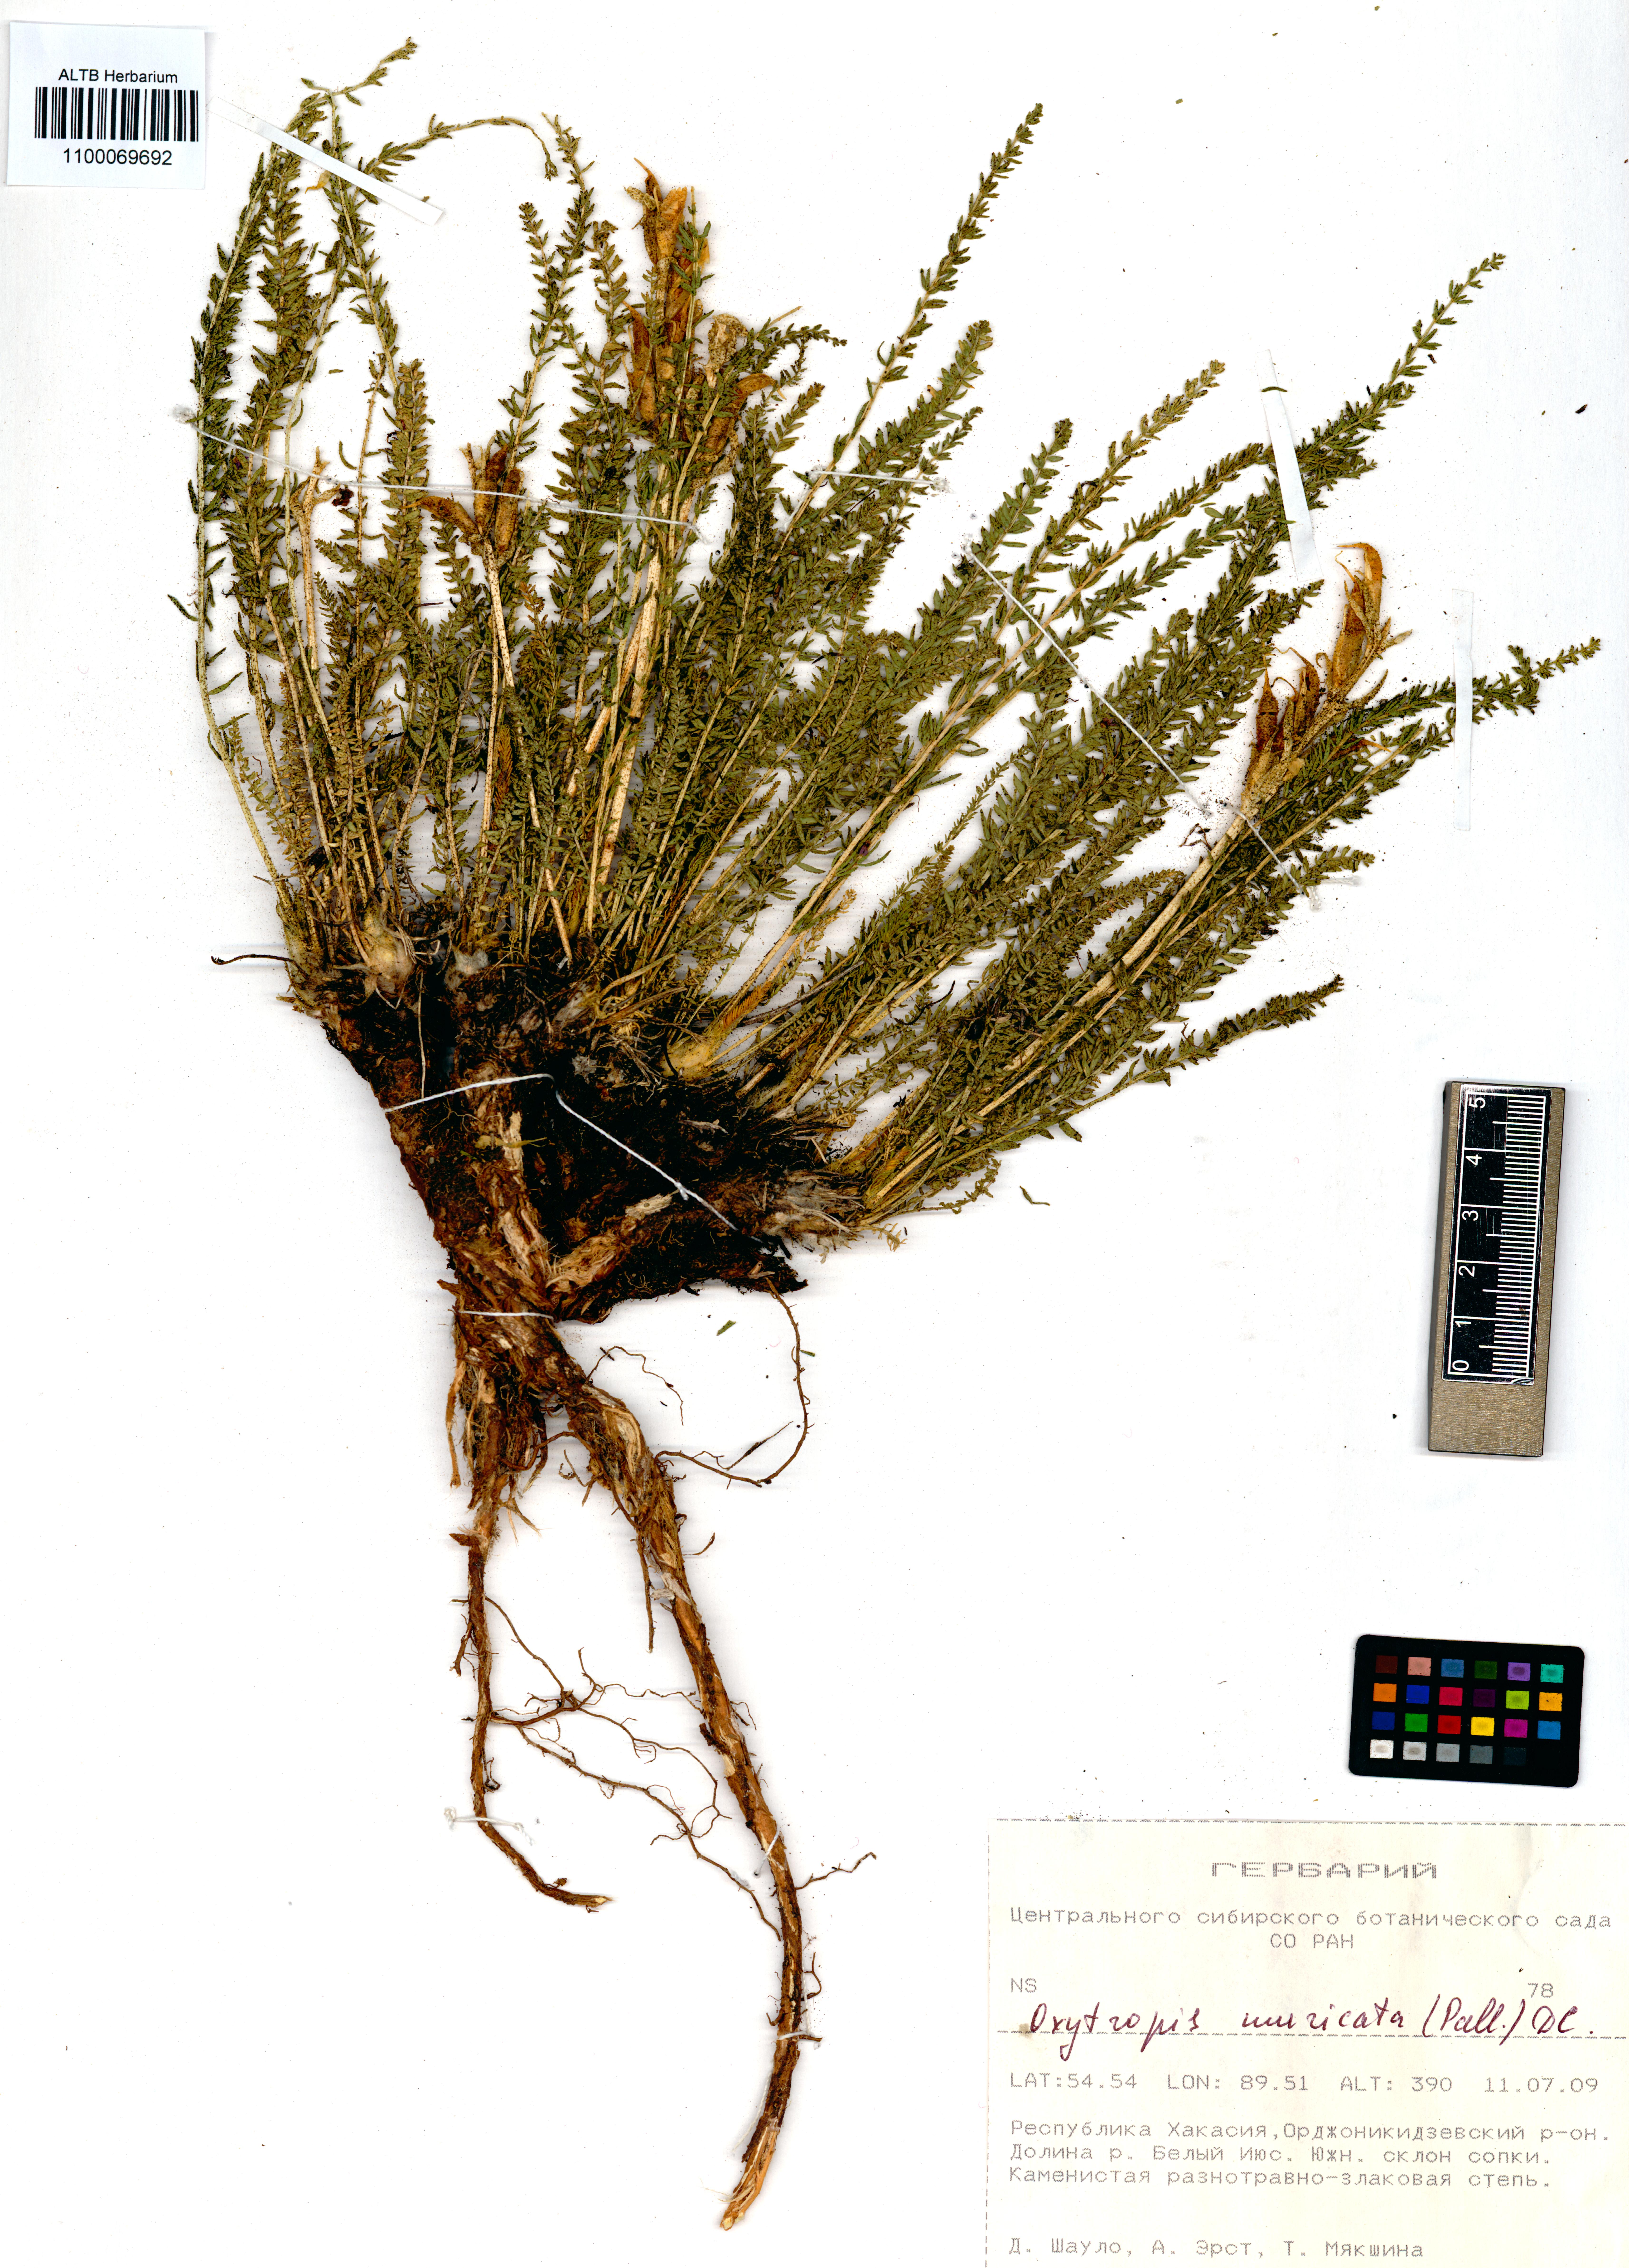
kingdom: Plantae
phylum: Tracheophyta
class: Magnoliopsida
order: Fabales
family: Fabaceae
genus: Oxytropis
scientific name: Oxytropis muricata
